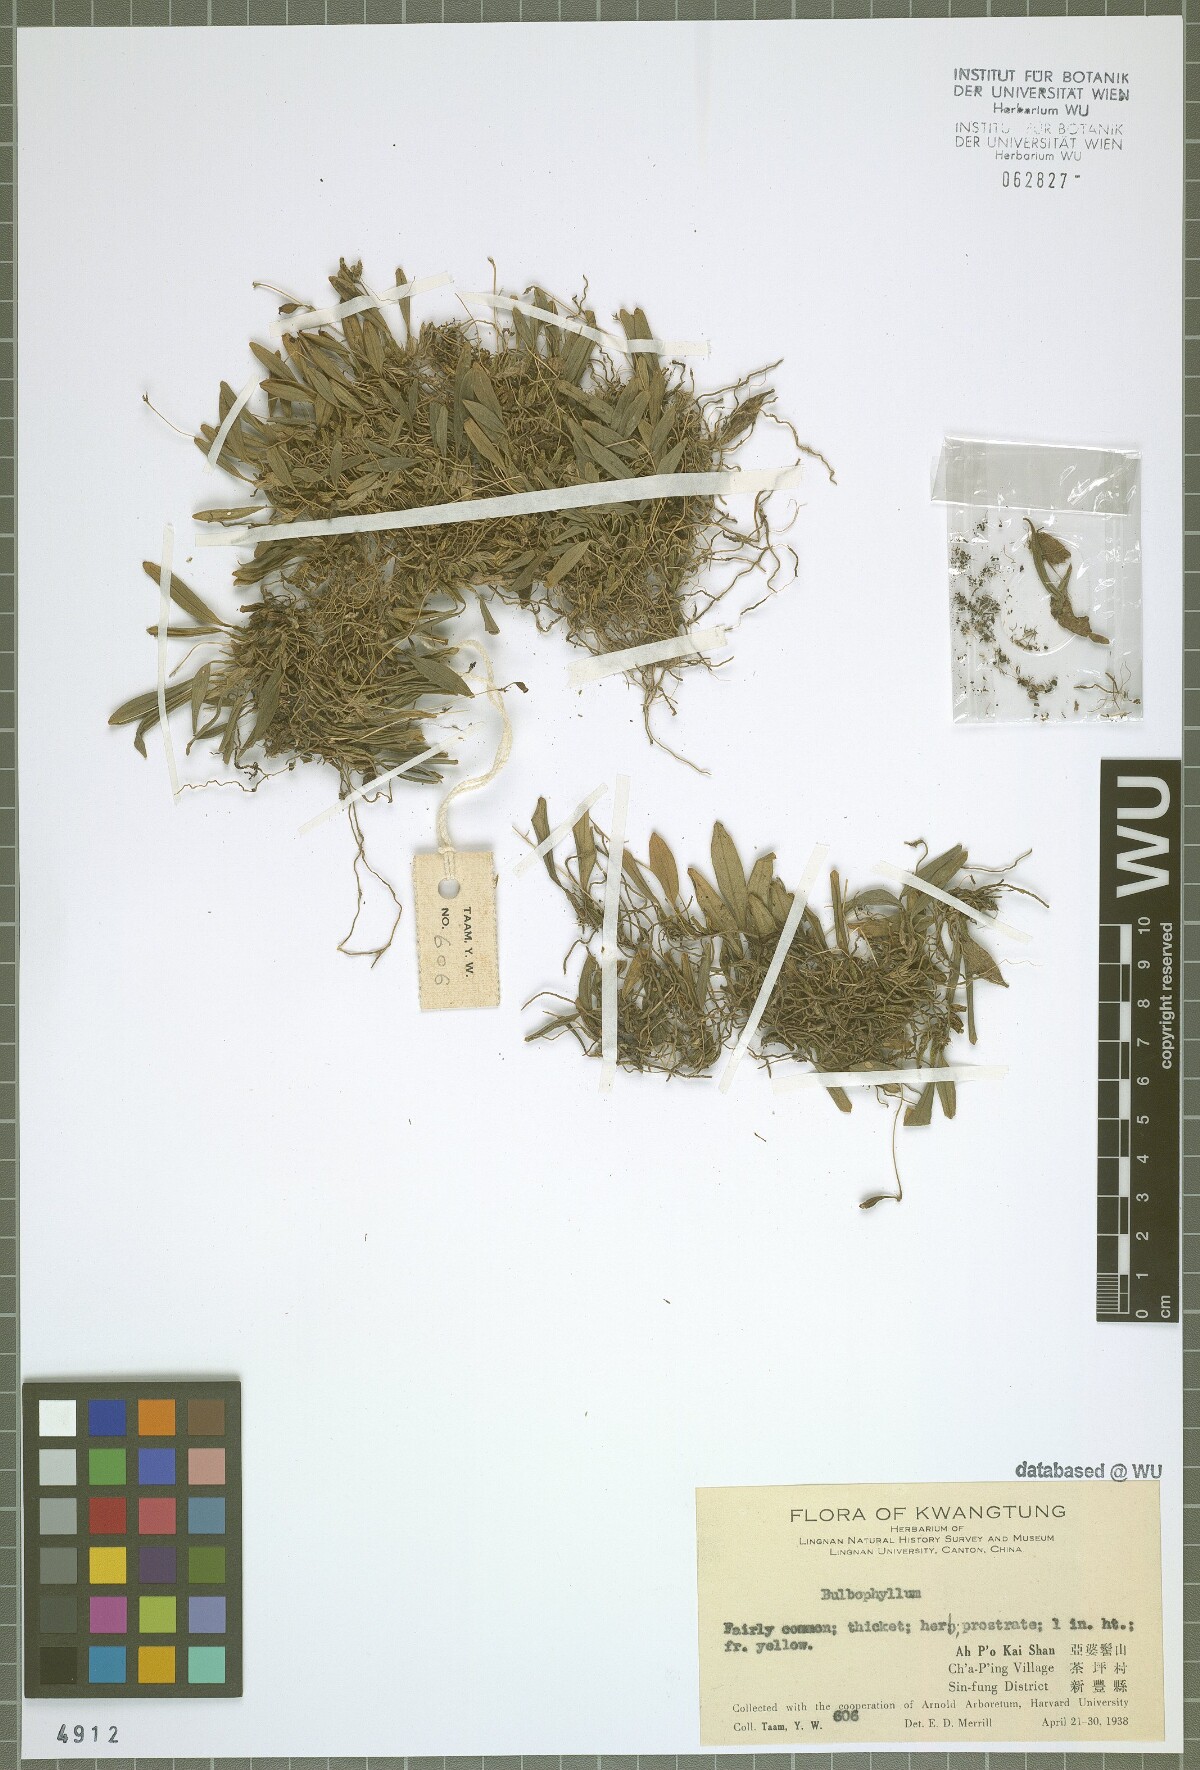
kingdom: Plantae
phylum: Tracheophyta
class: Liliopsida
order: Asparagales
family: Orchidaceae
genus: Bulbophyllum
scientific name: Bulbophyllum scabratum
